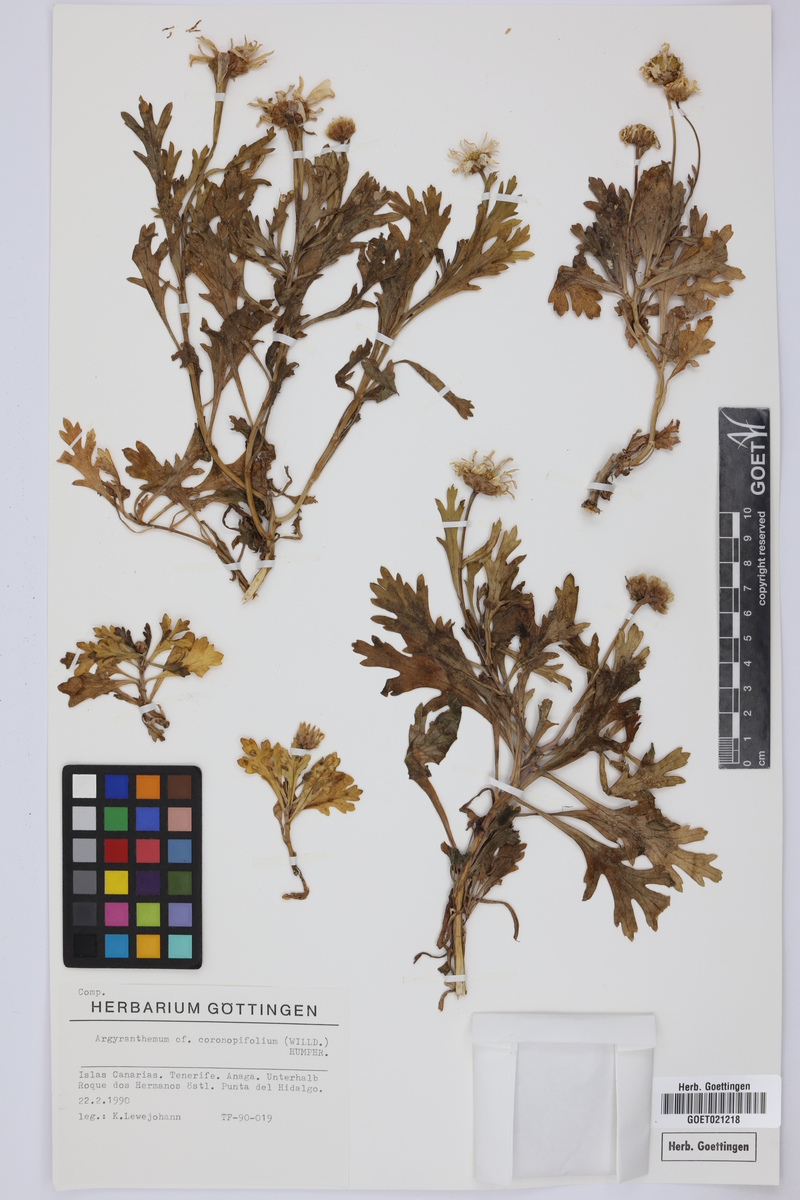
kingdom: Plantae
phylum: Tracheophyta
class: Magnoliopsida
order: Asterales
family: Asteraceae
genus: Argyranthemum
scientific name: Argyranthemum coronopifolium
